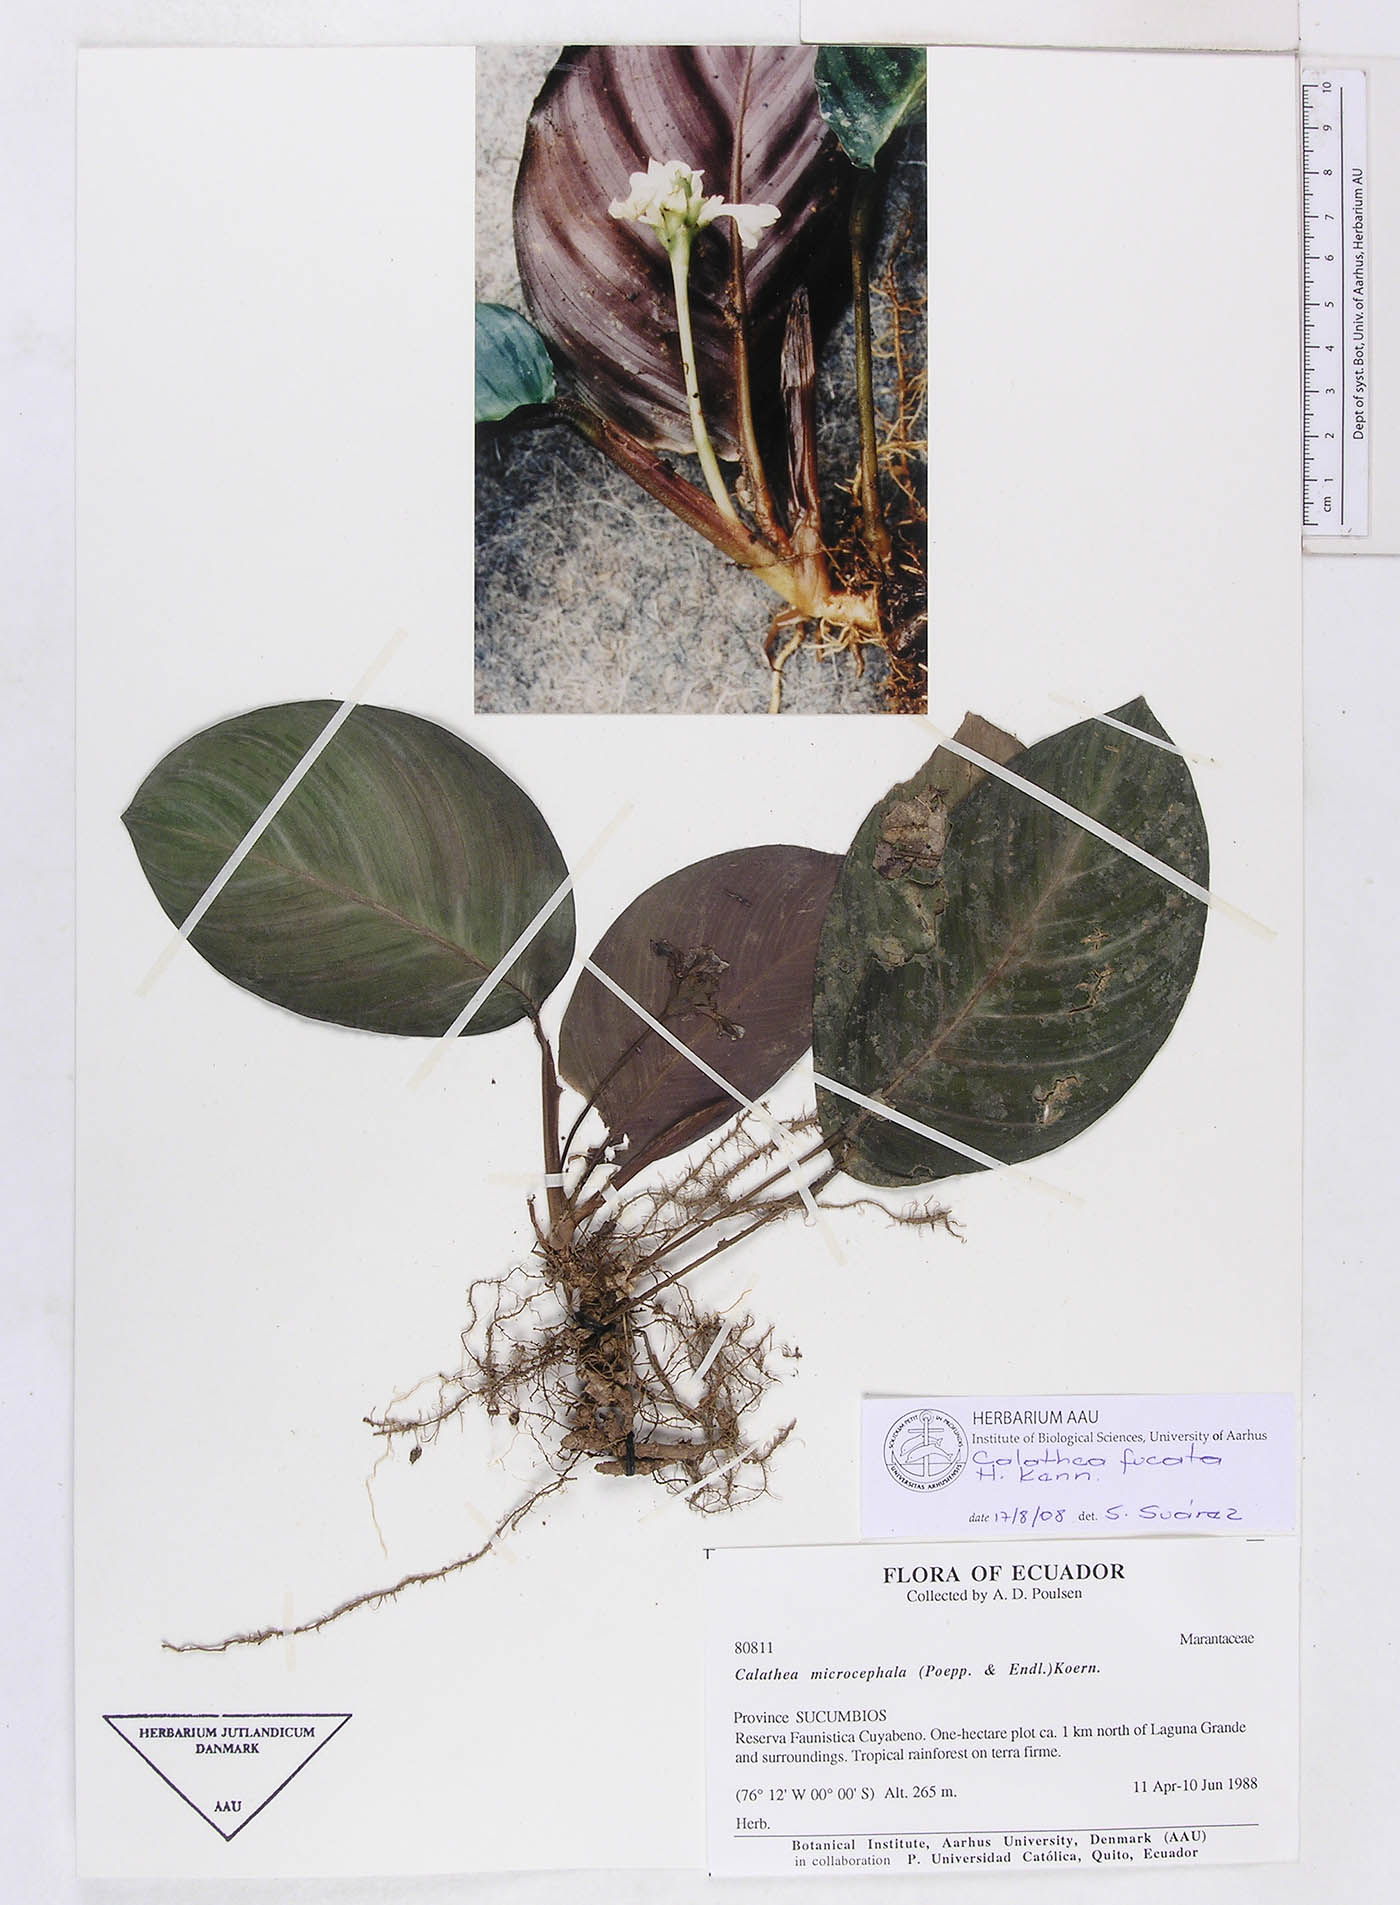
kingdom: Plantae
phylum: Tracheophyta
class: Liliopsida
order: Zingiberales
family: Marantaceae
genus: Goeppertia
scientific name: Goeppertia fucata
